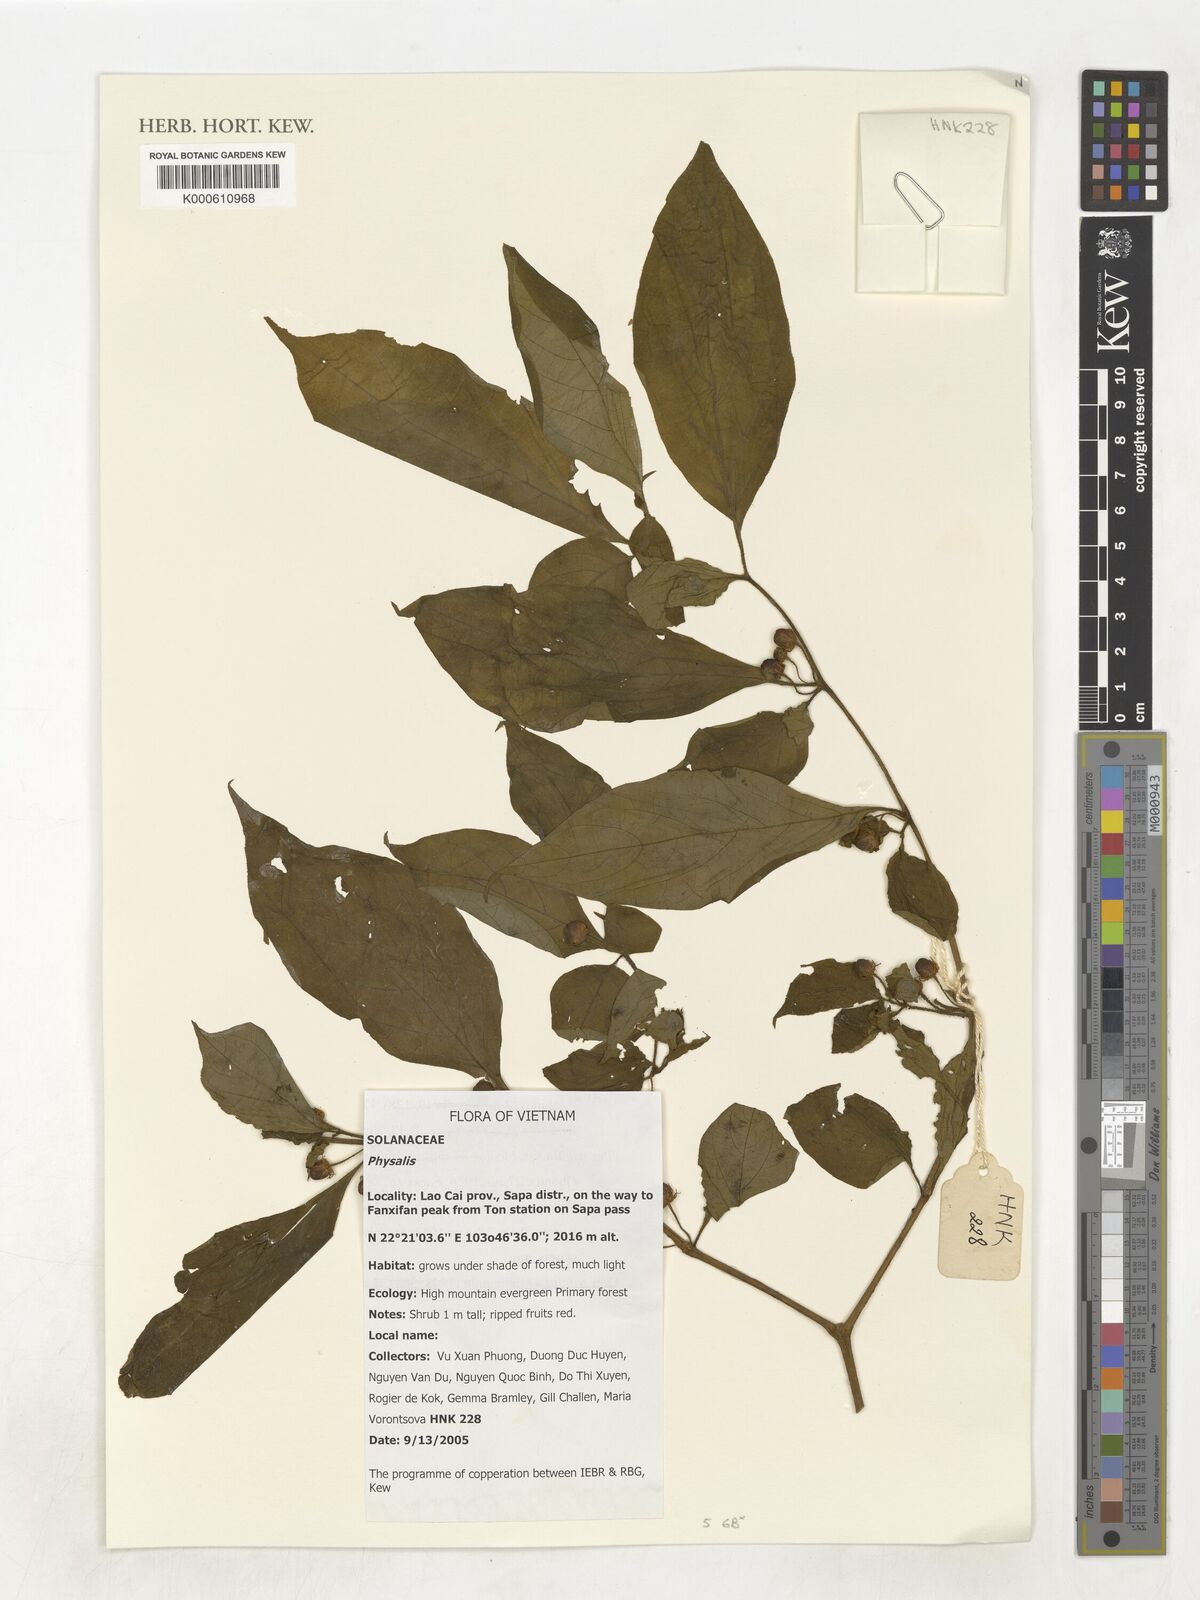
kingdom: Plantae
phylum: Tracheophyta
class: Magnoliopsida
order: Solanales
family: Solanaceae
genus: Lycianthes
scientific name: Lycianthes
